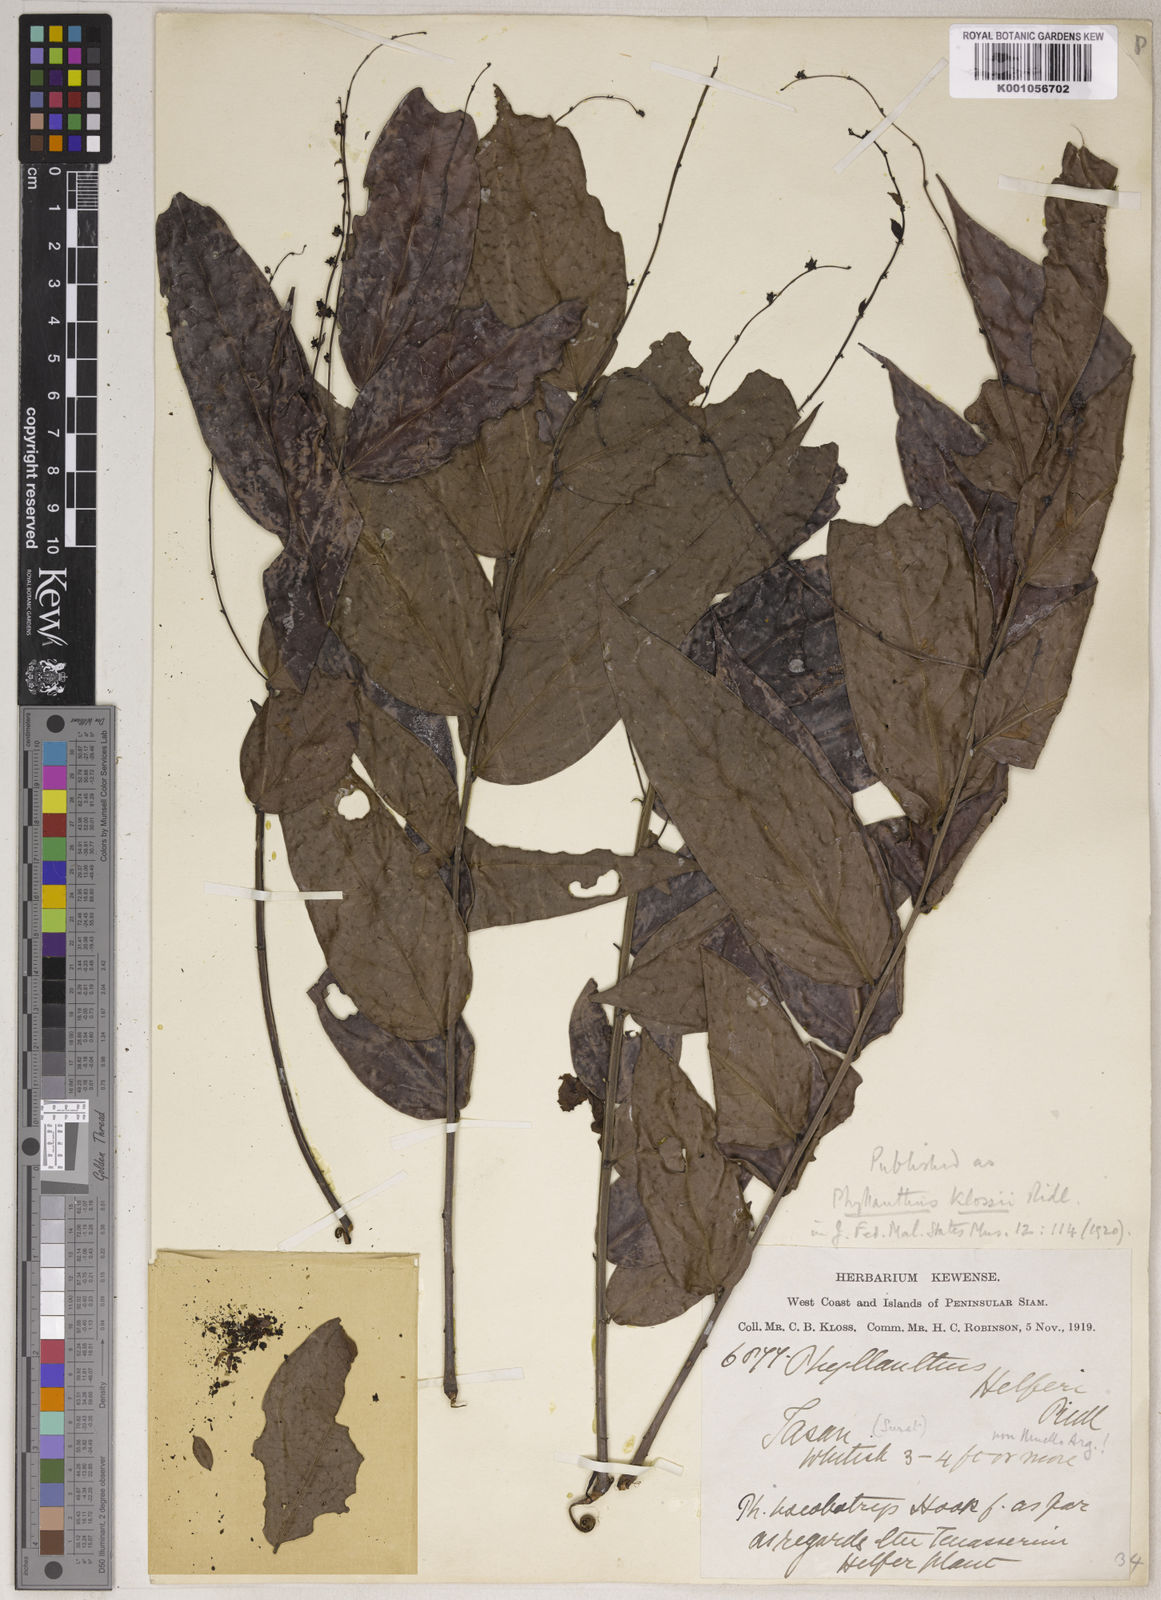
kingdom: Plantae
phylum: Tracheophyta
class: Magnoliopsida
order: Malpighiales
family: Phyllanthaceae
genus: Phyllanthus
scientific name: Phyllanthus
